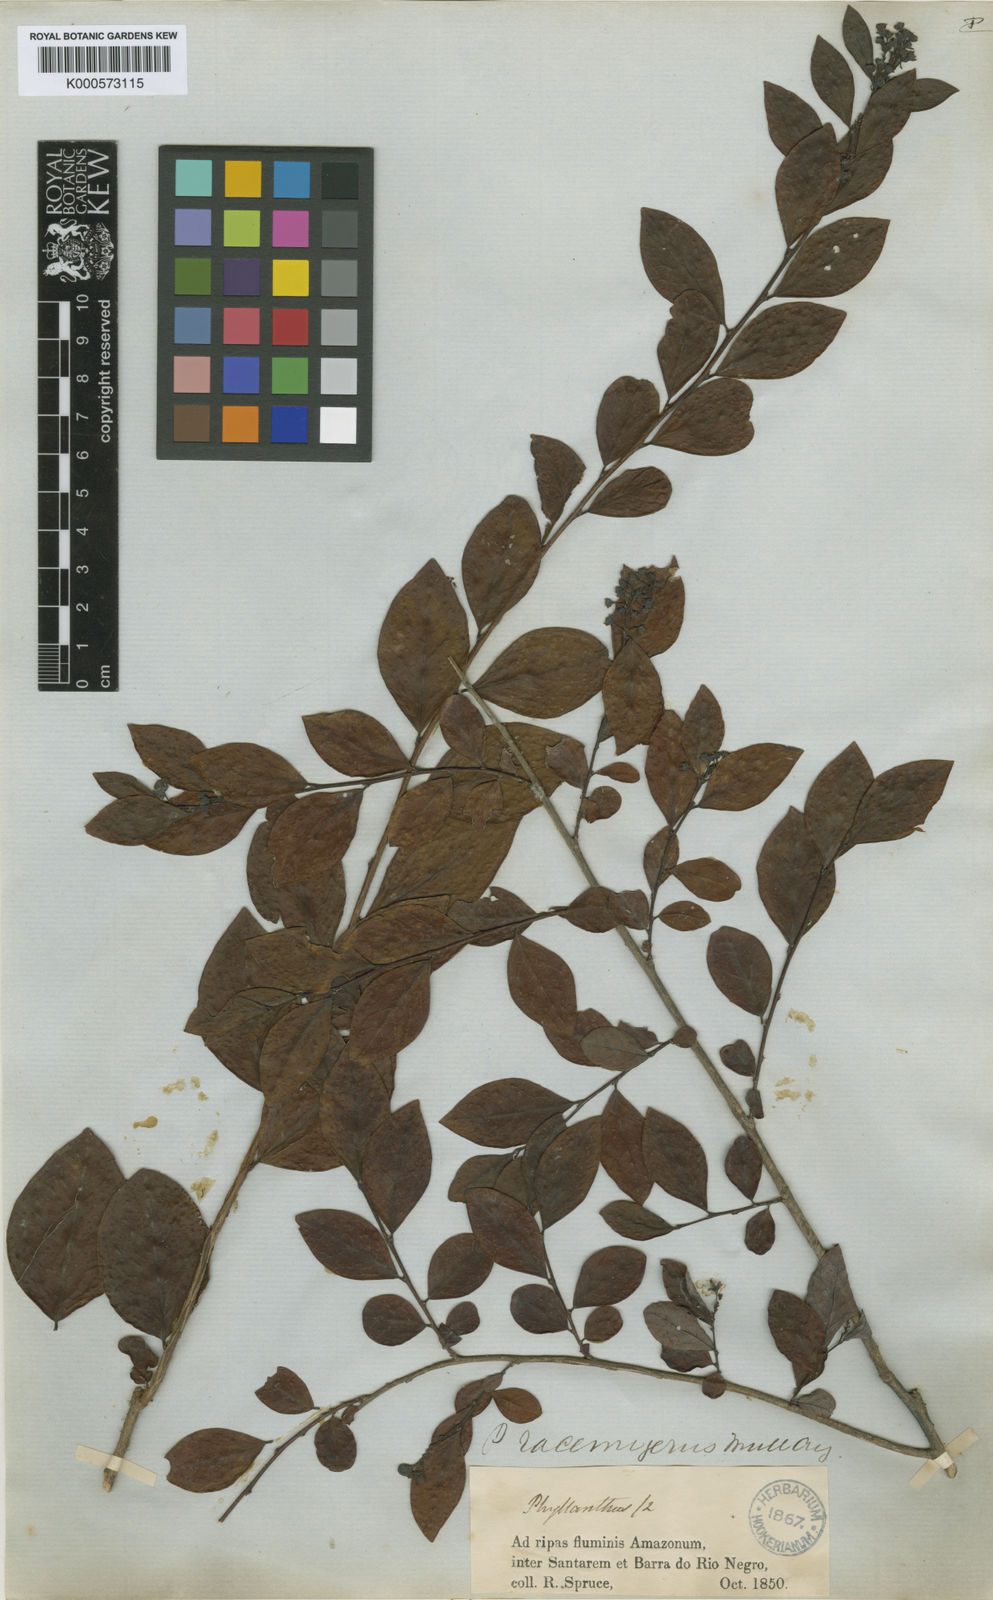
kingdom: Plantae
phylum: Tracheophyta
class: Magnoliopsida
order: Malpighiales
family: Phyllanthaceae
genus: Phyllanthus
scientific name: Phyllanthus
